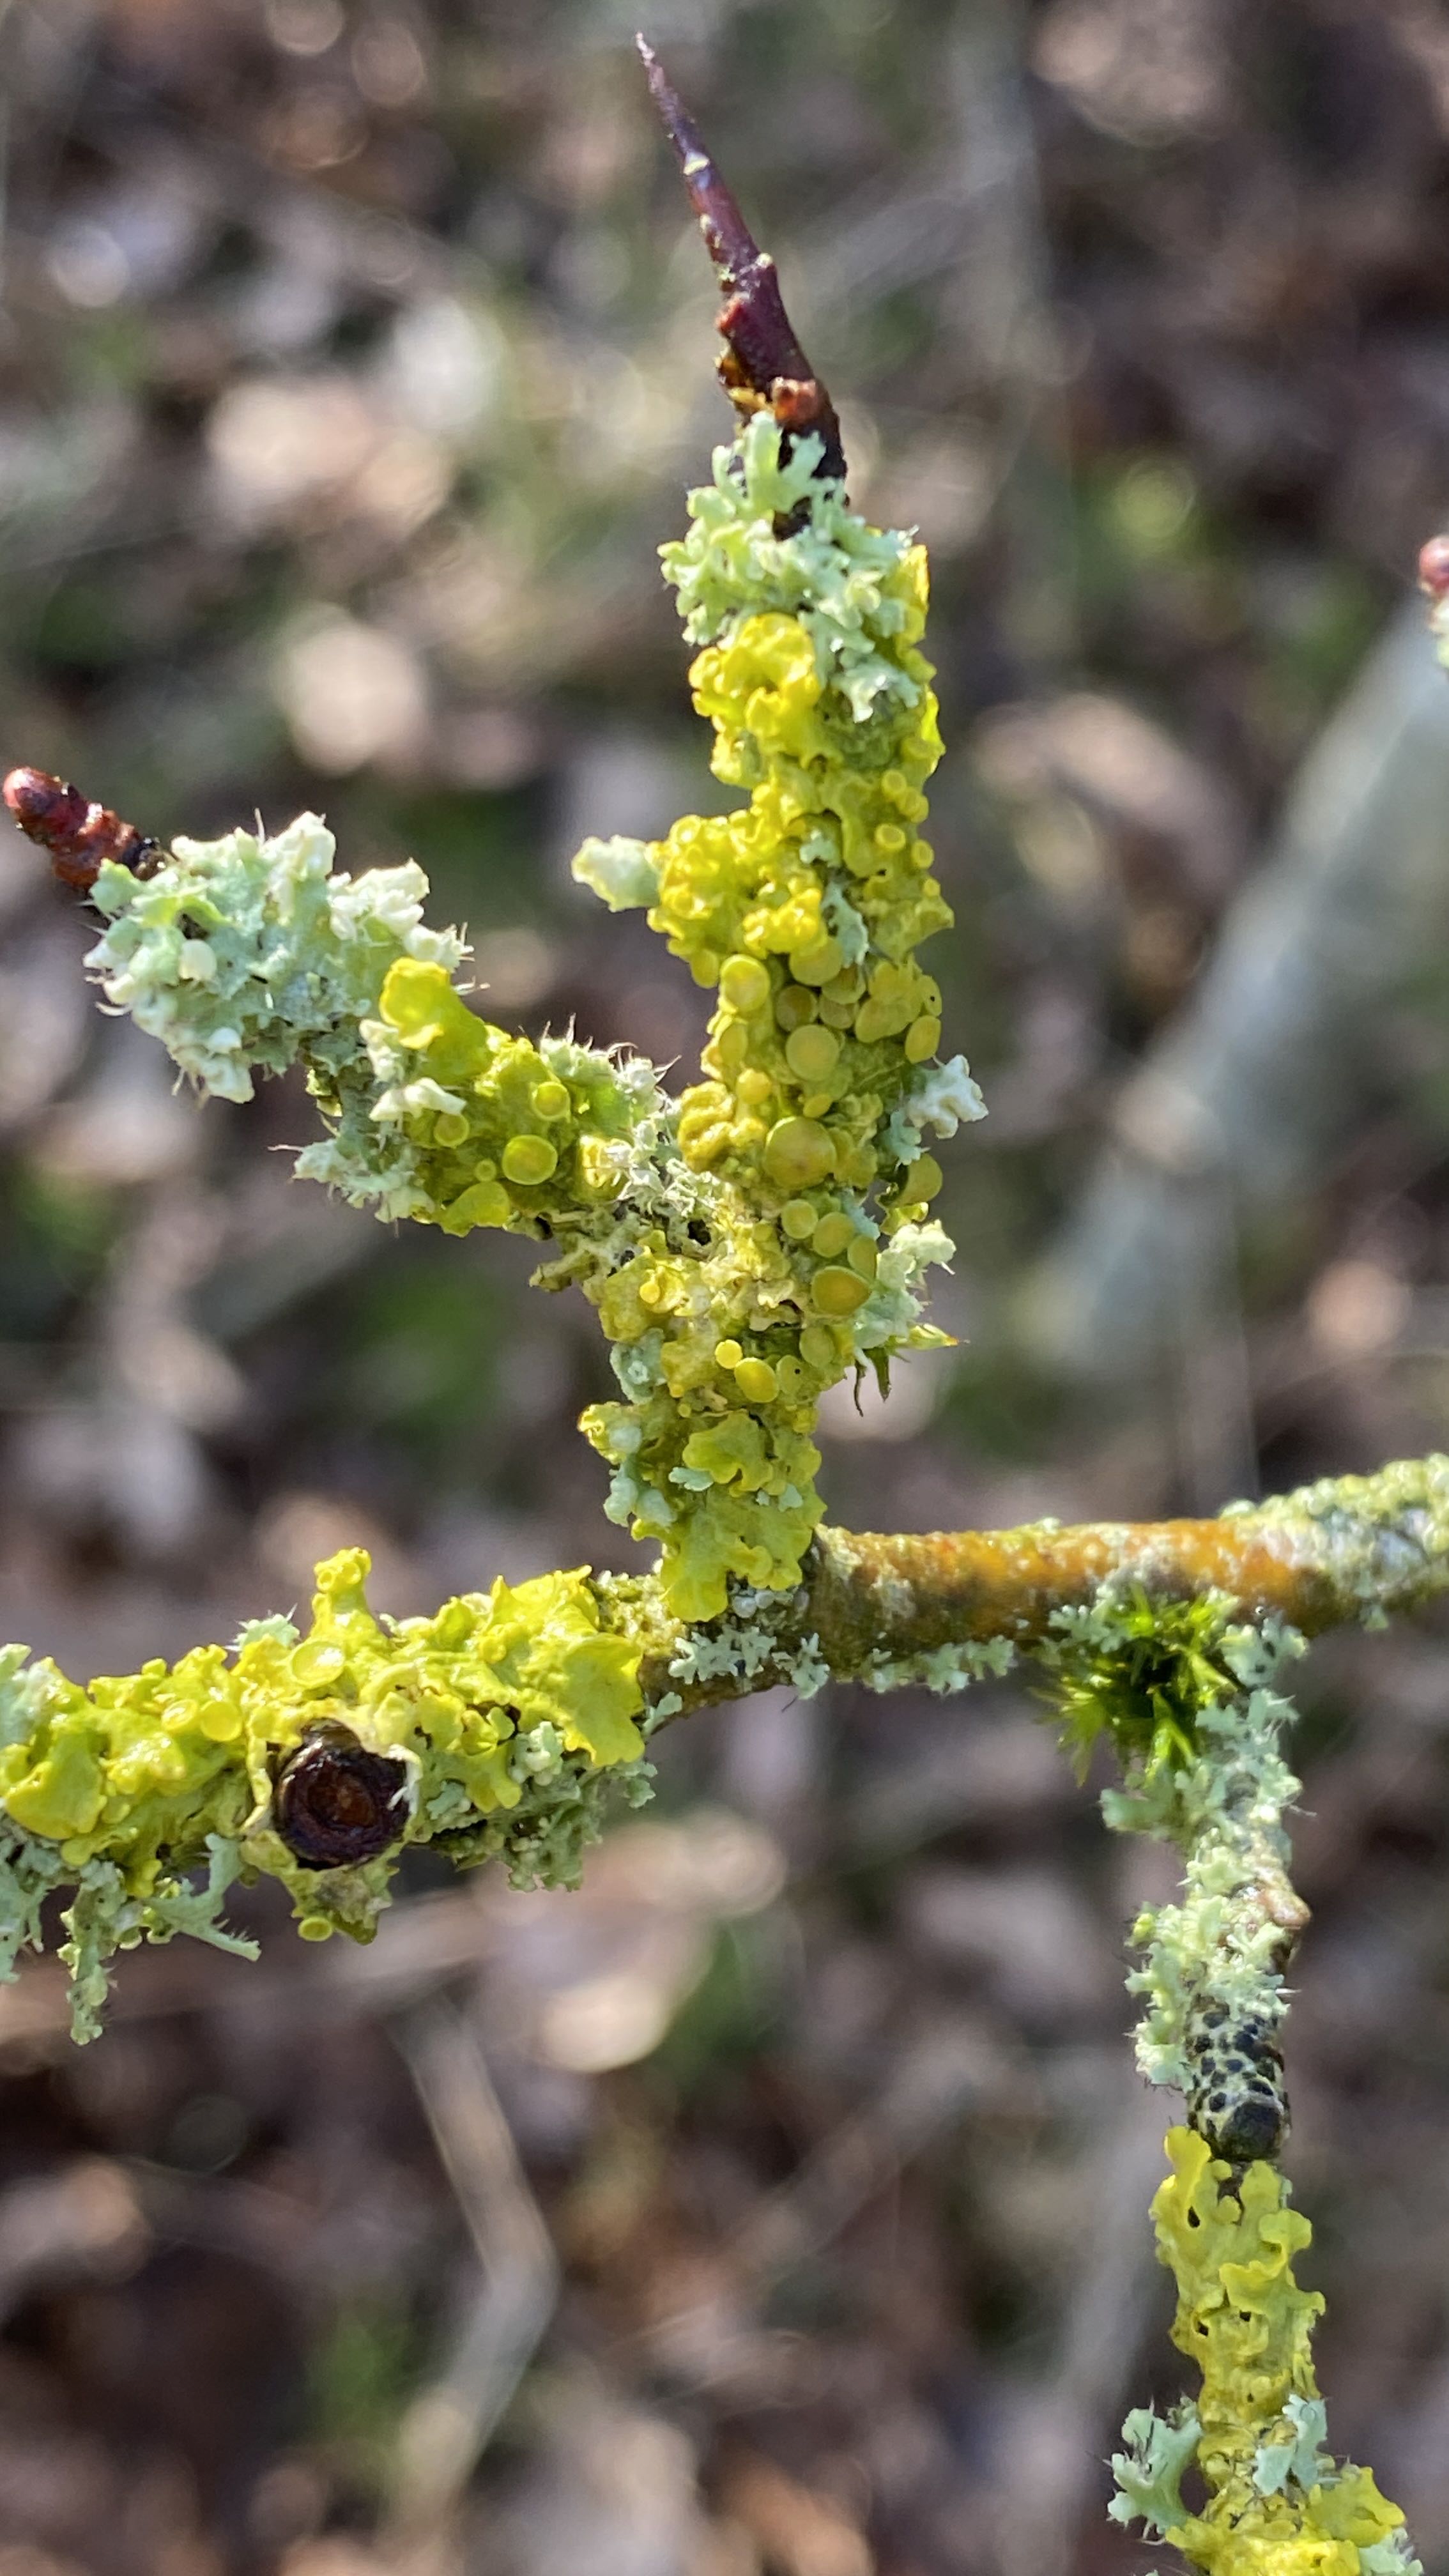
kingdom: Fungi
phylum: Ascomycota
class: Lecanoromycetes
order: Teloschistales
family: Teloschistaceae
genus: Xanthoria
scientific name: Xanthoria parietina
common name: almindelig væggelav
